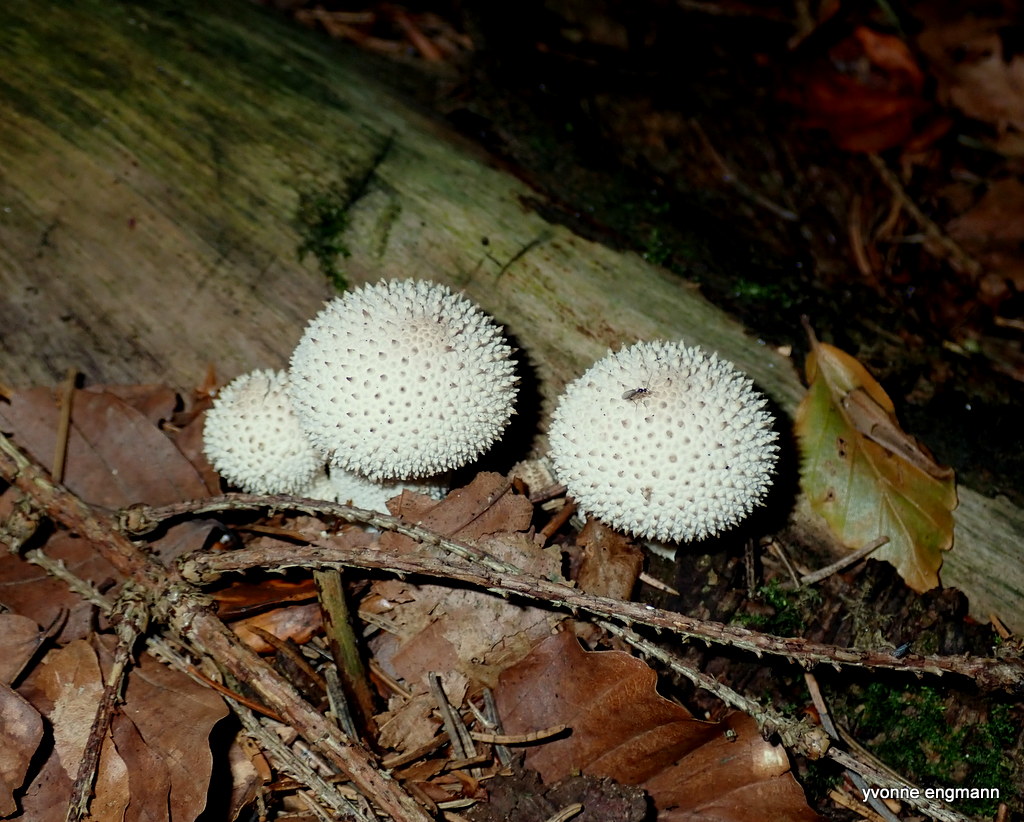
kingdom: Fungi
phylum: Basidiomycota
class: Agaricomycetes
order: Agaricales
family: Lycoperdaceae
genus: Lycoperdon
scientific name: Lycoperdon perlatum
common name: krystal-støvbold
